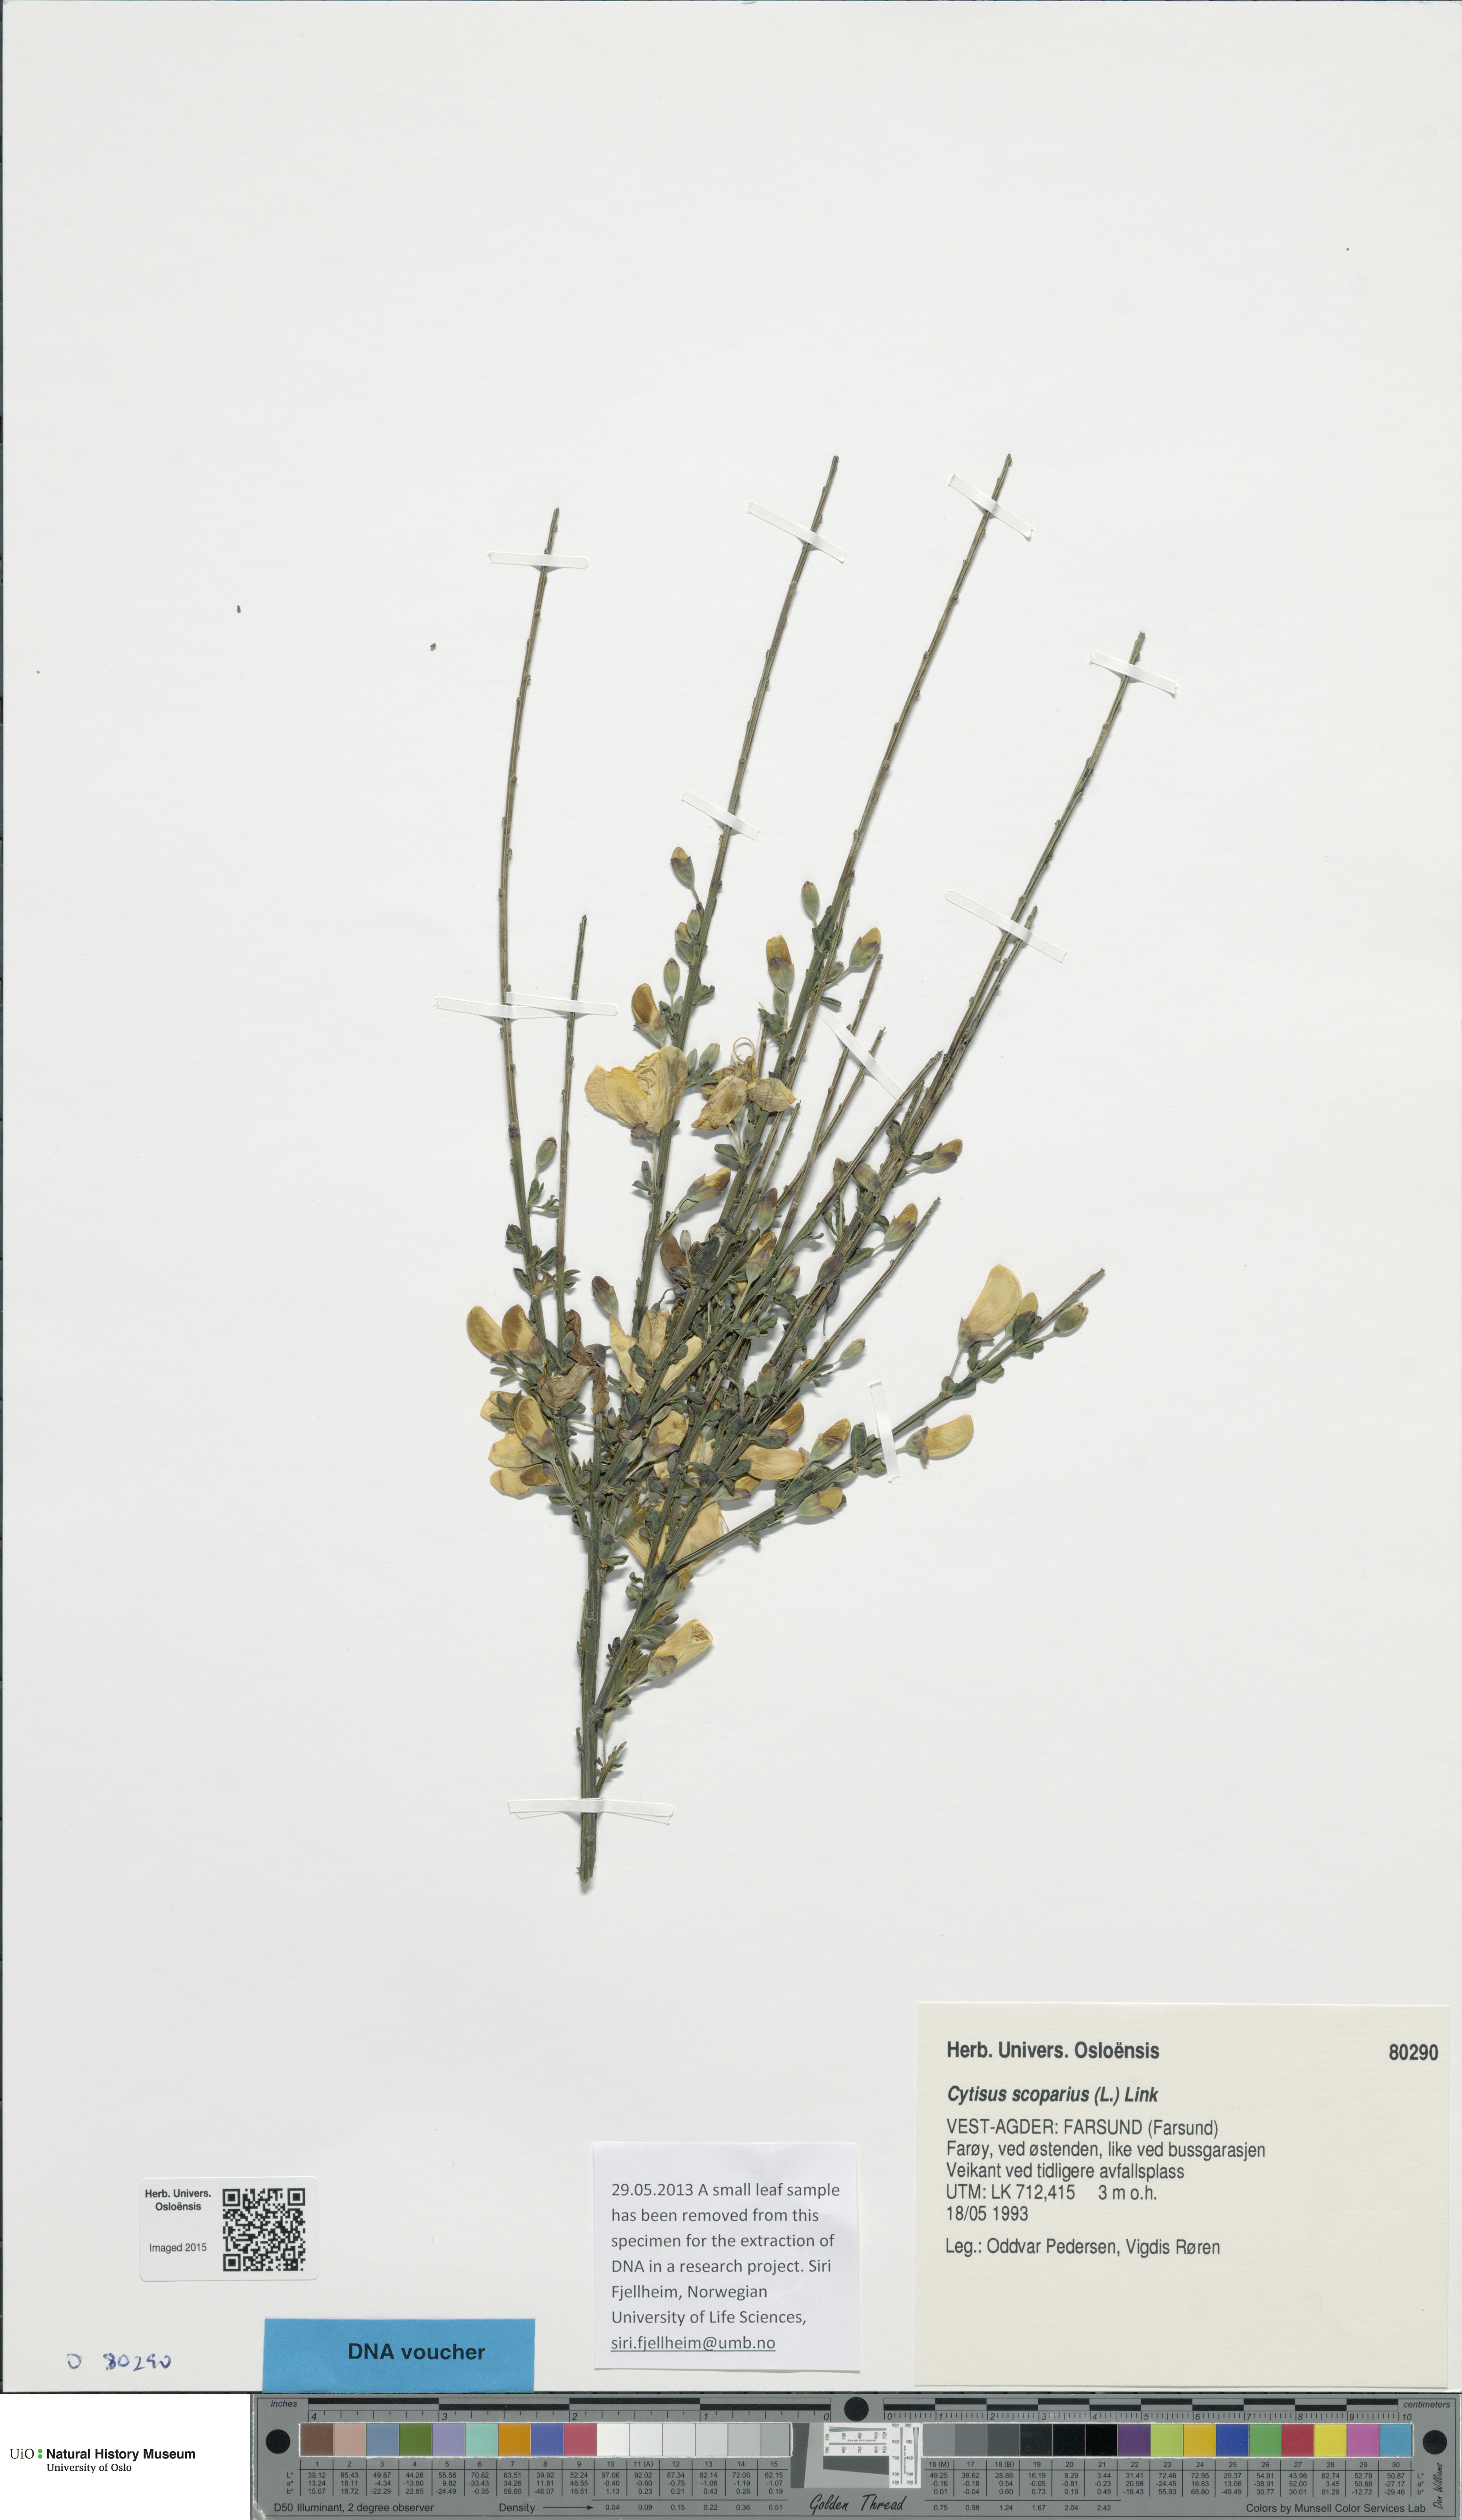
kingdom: Plantae
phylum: Tracheophyta
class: Magnoliopsida
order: Fabales
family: Fabaceae
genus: Cytisus
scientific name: Cytisus scoparius
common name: Scotch broom
